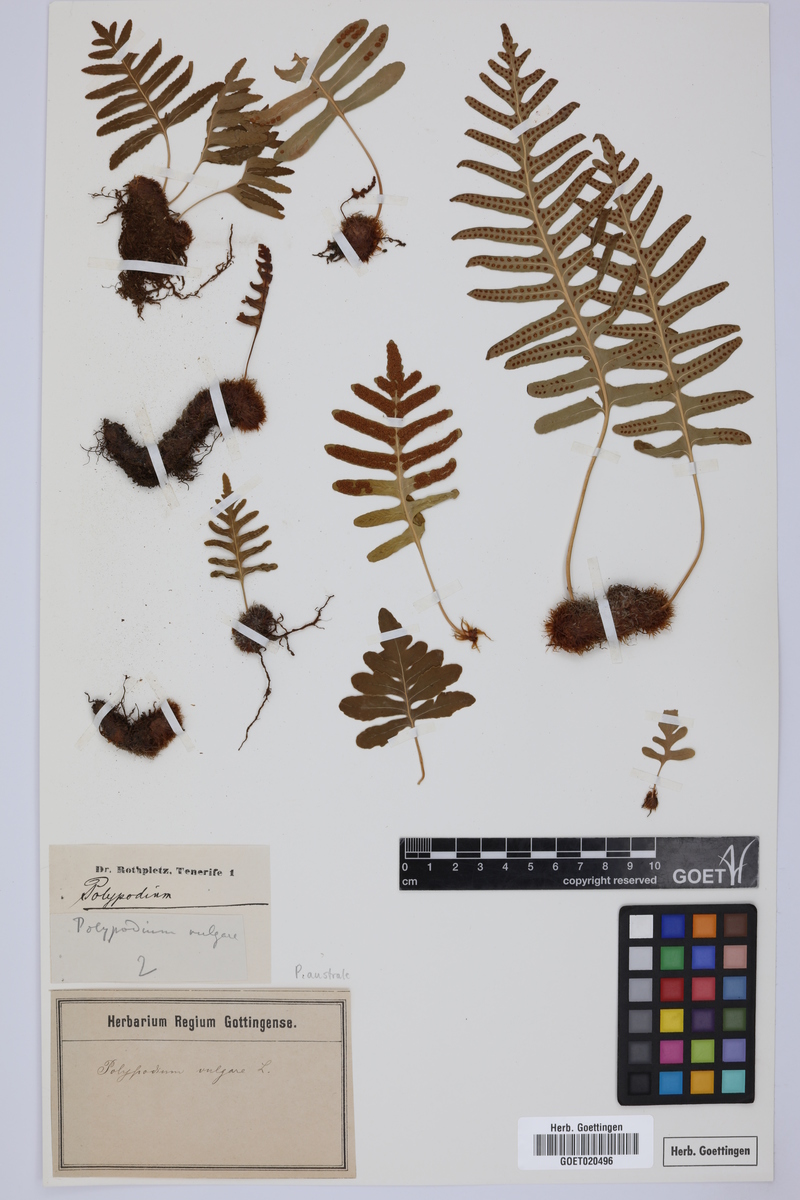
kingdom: Plantae
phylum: Tracheophyta
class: Polypodiopsida
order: Polypodiales
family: Polypodiaceae
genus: Notogrammitis
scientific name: Notogrammitis billardierei
